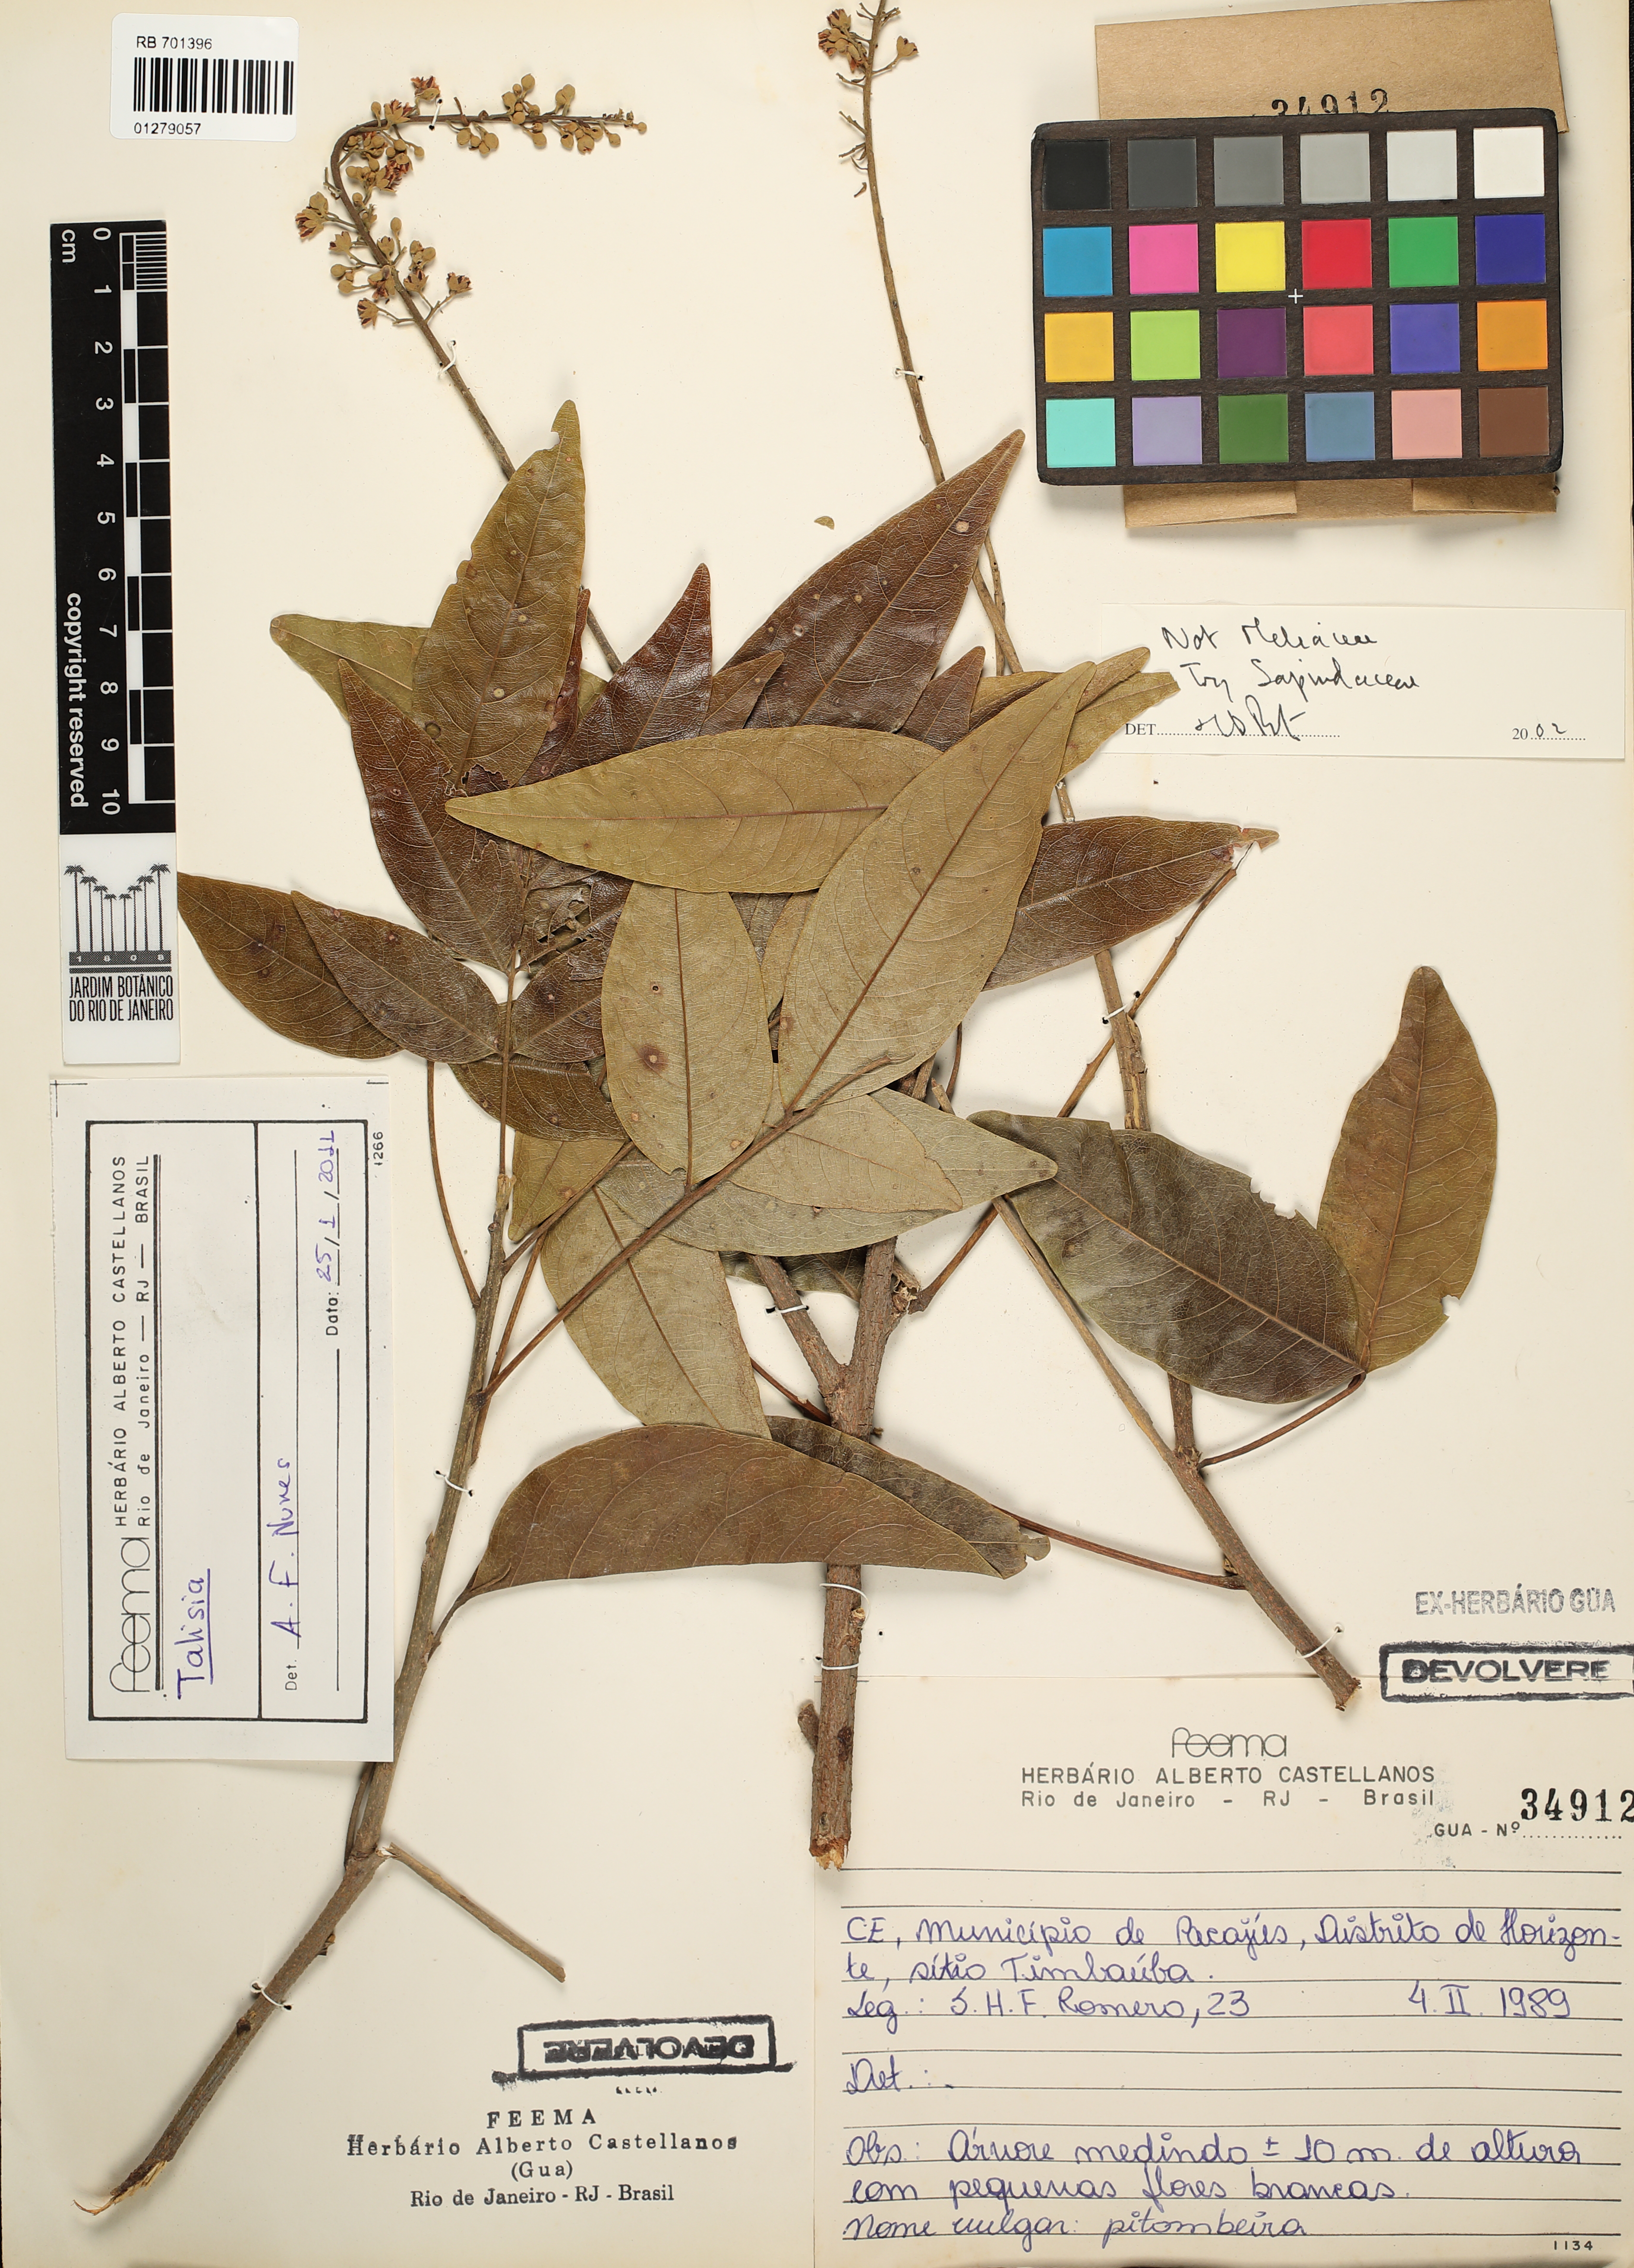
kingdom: Plantae
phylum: Tracheophyta
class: Magnoliopsida
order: Sapindales
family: Sapindaceae
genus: Talisia
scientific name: Talisia
